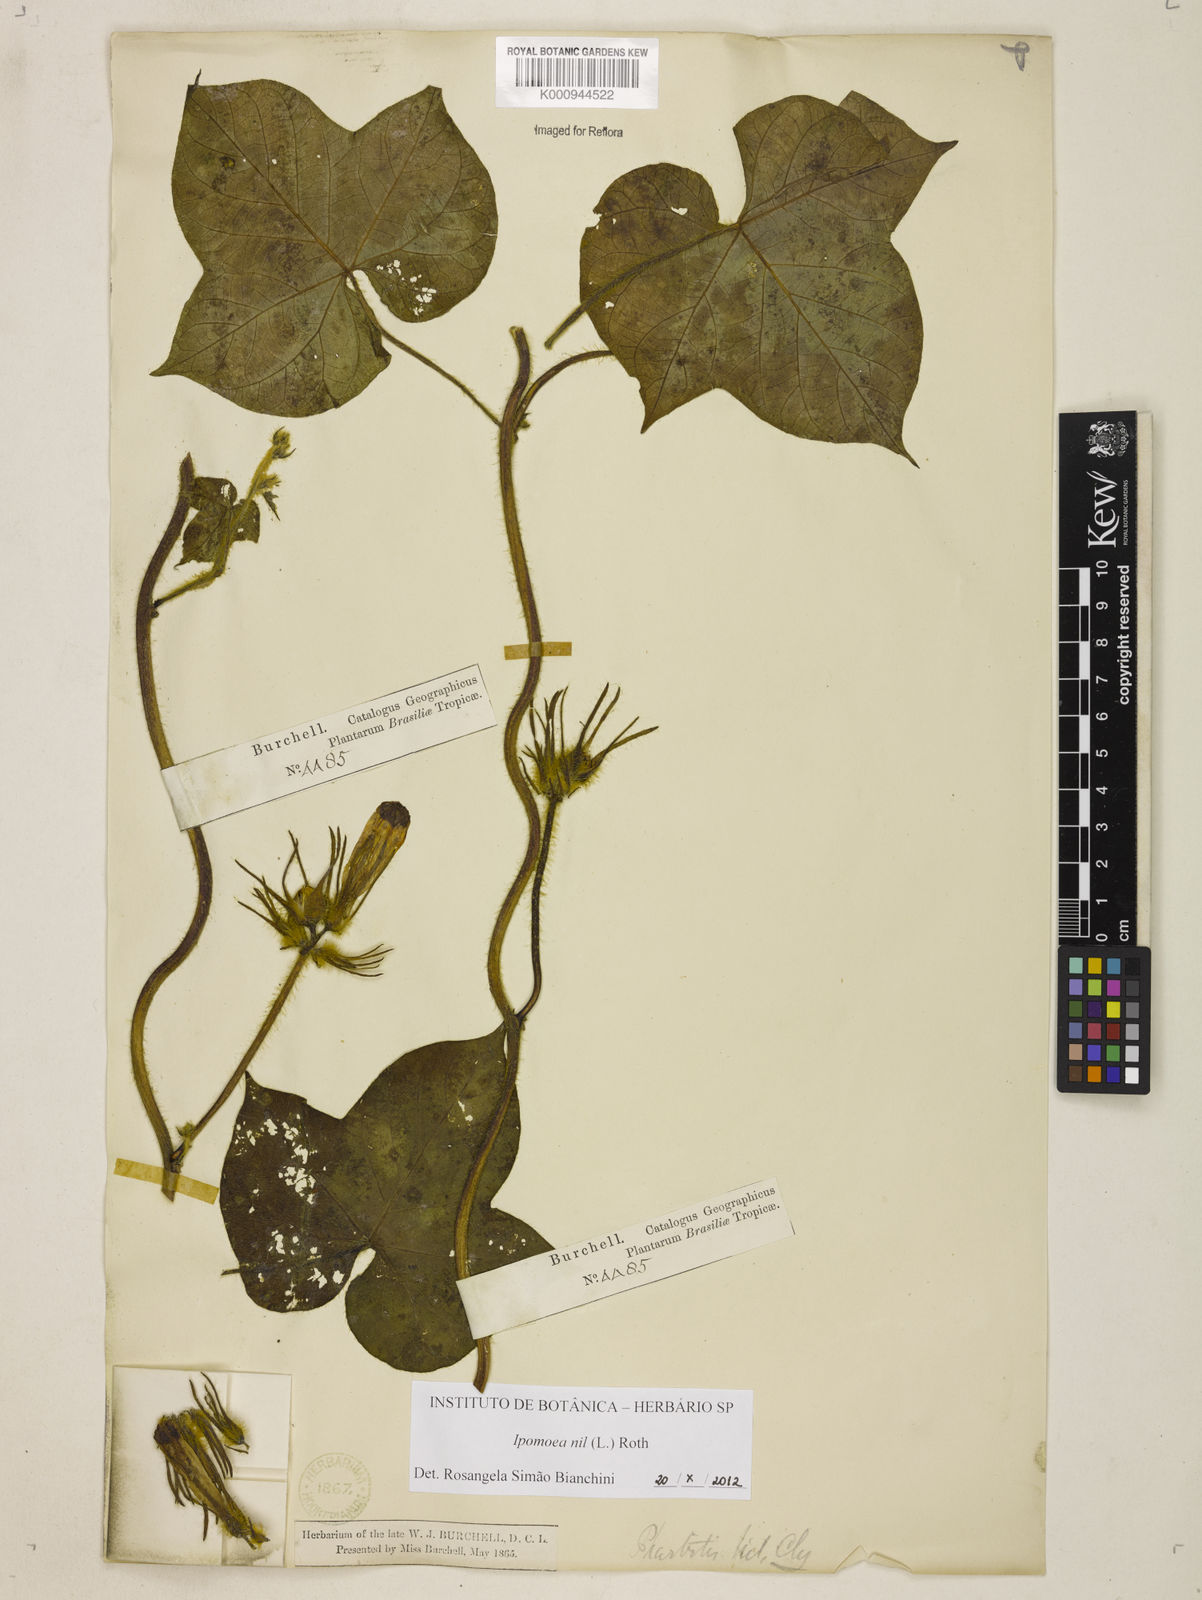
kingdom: Plantae
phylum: Tracheophyta
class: Magnoliopsida
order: Solanales
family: Convolvulaceae
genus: Ipomoea
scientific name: Ipomoea nil
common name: Japanese morning-glory
